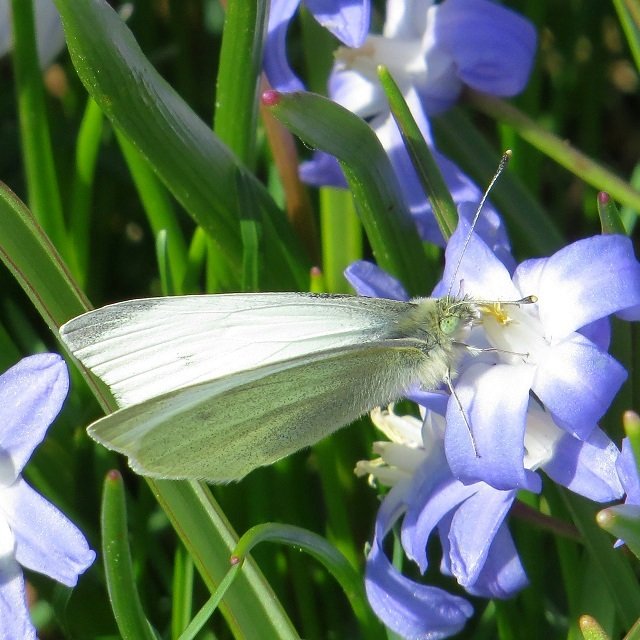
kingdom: Animalia
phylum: Arthropoda
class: Insecta
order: Lepidoptera
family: Pieridae
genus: Pieris
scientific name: Pieris rapae
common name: Cabbage White
